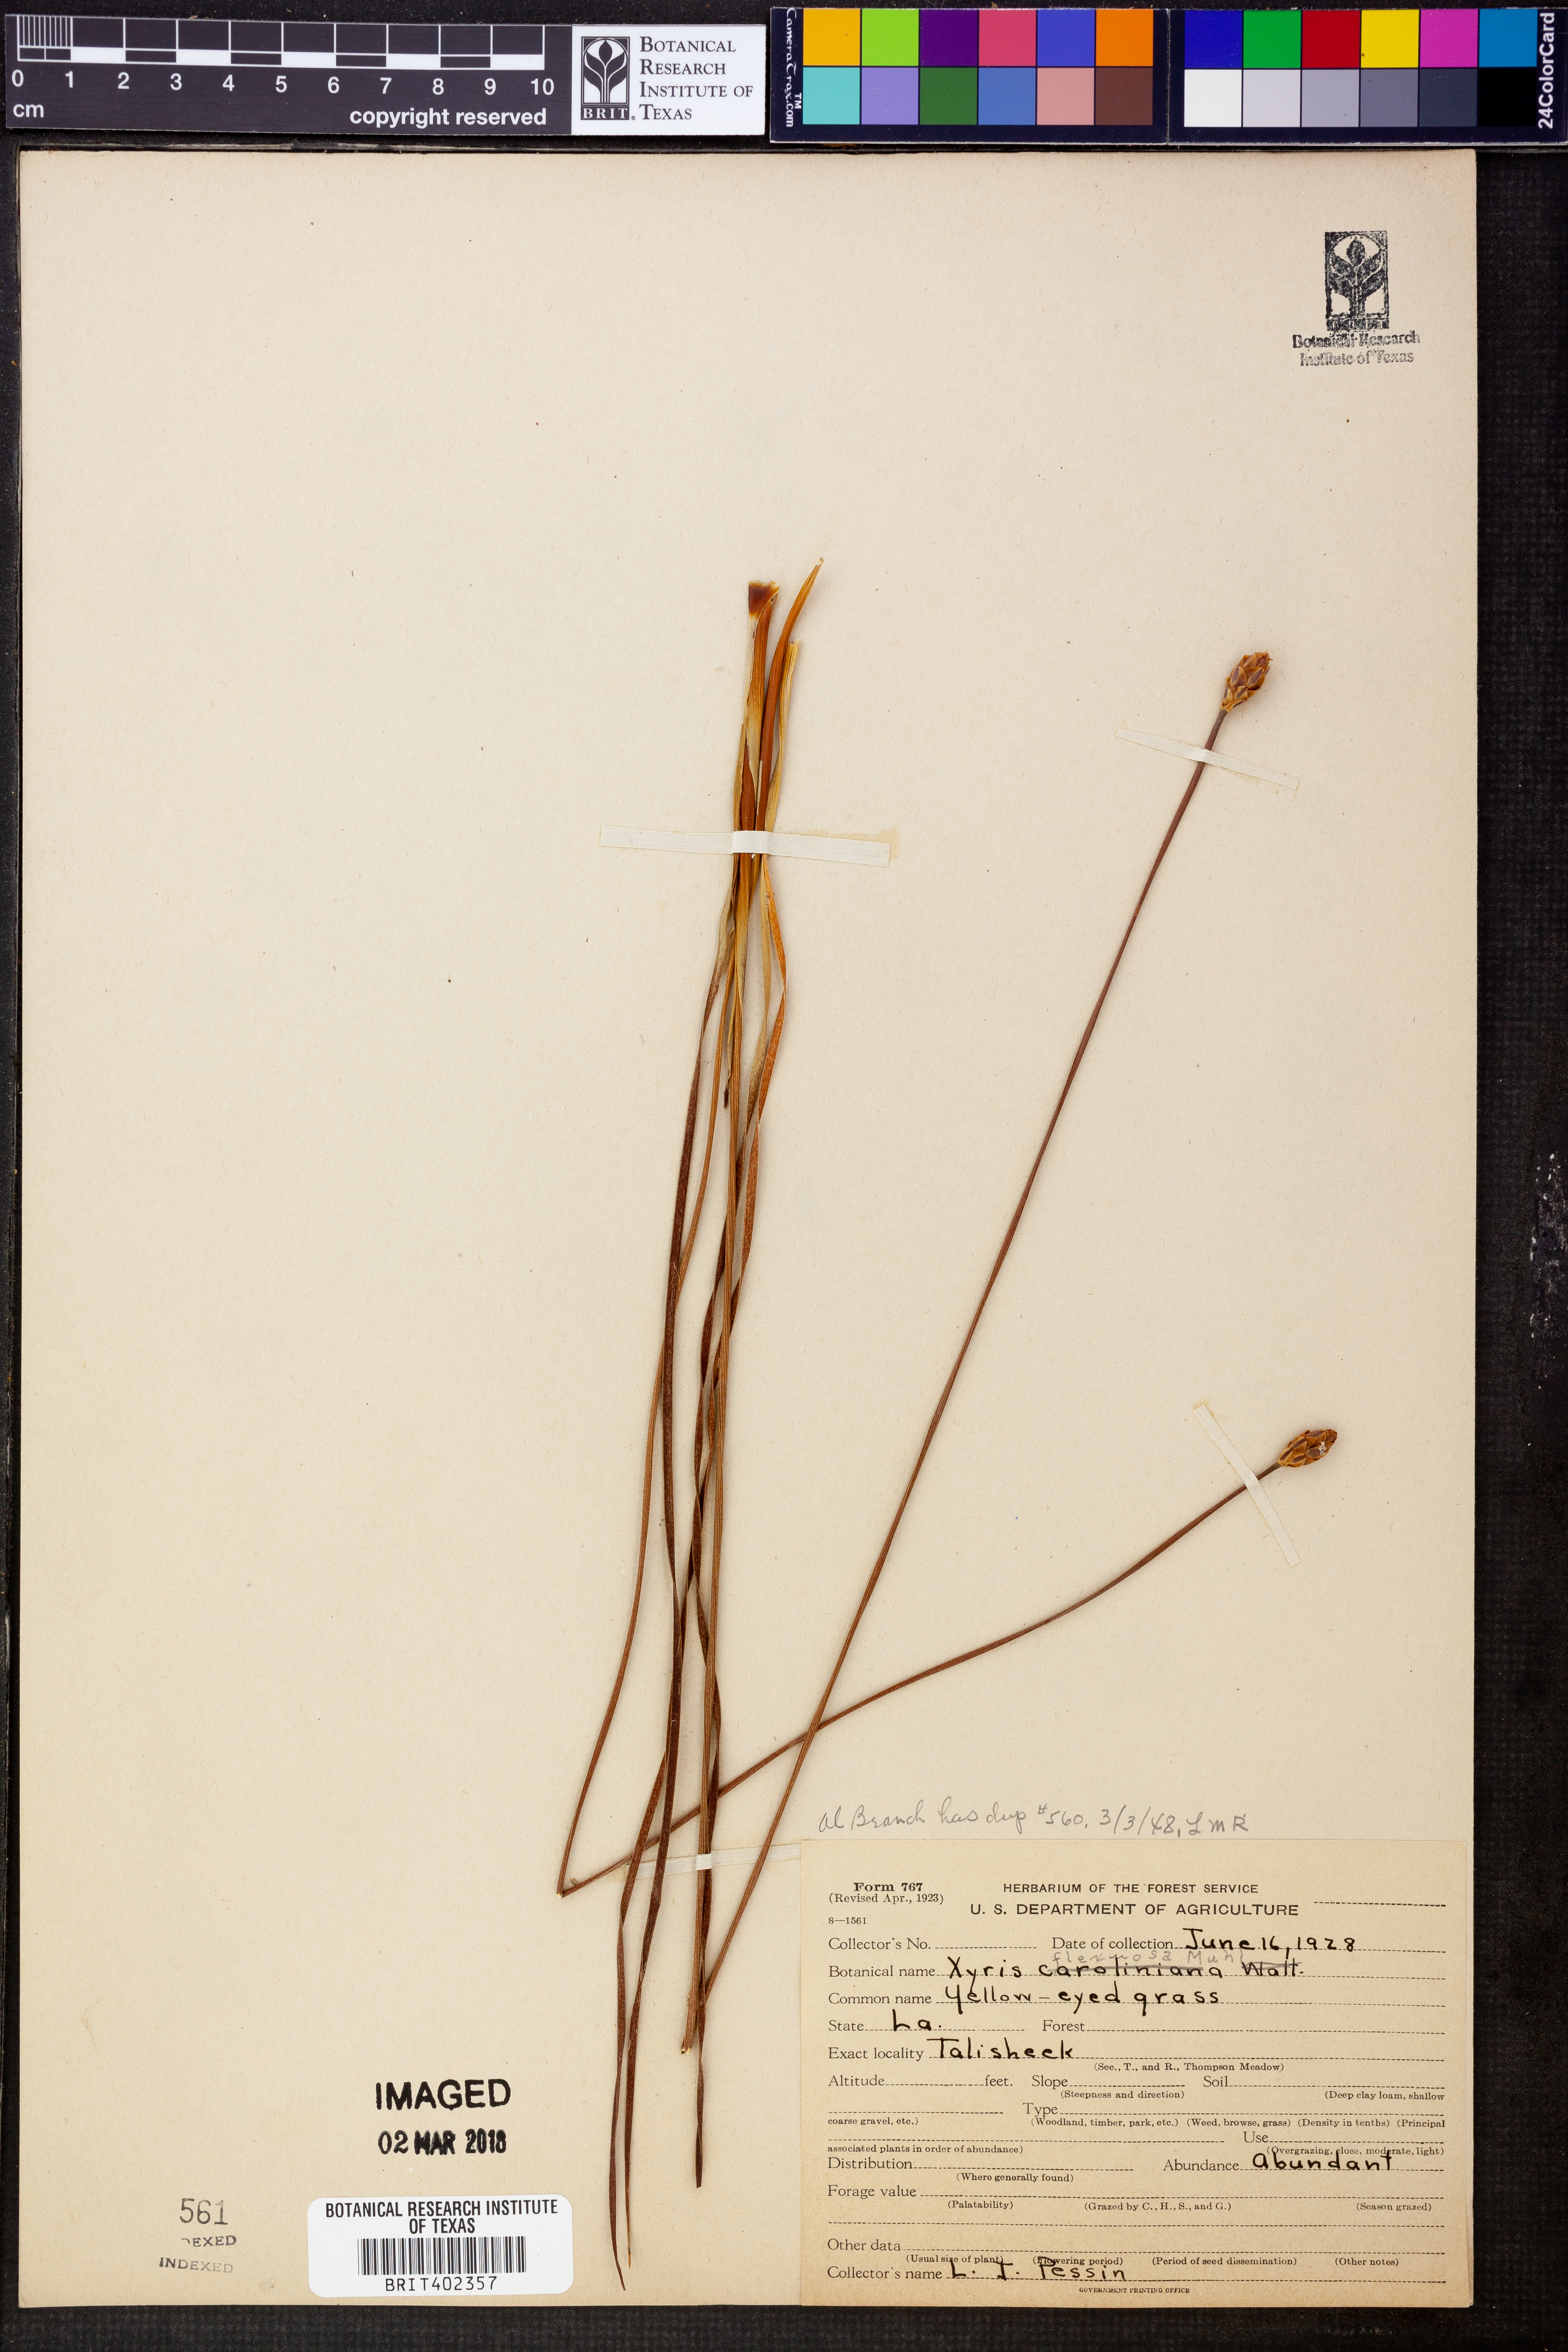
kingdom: Plantae
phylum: Tracheophyta
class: Liliopsida
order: Poales
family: Xyridaceae
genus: Xyris
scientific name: Xyris flexuosa
